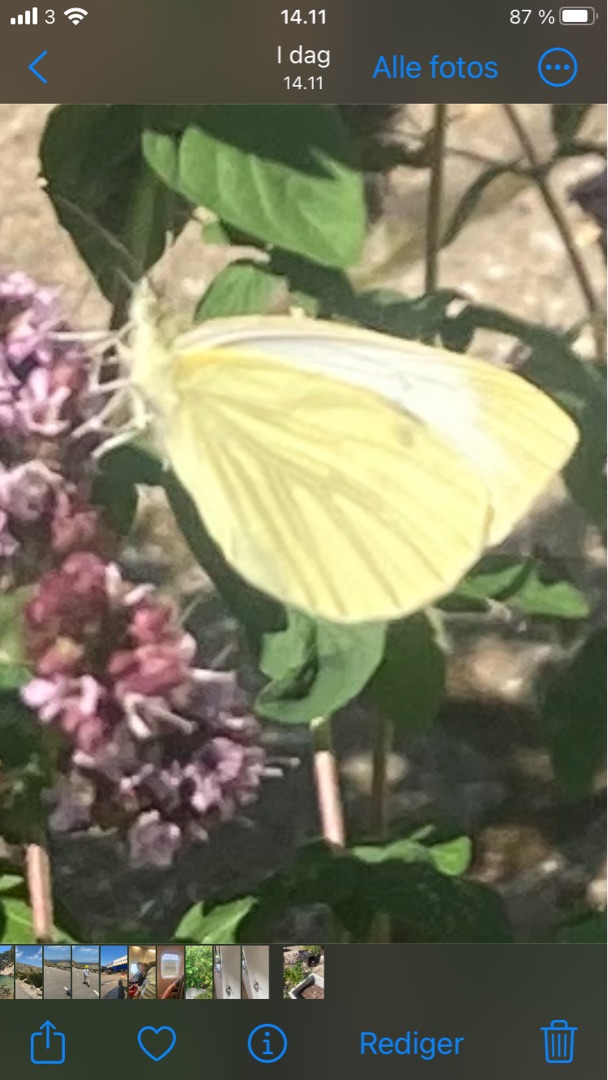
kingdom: Animalia
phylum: Arthropoda
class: Insecta
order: Lepidoptera
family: Pieridae
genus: Pieris
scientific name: Pieris napi
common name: Grønåret kålsommerfugl
